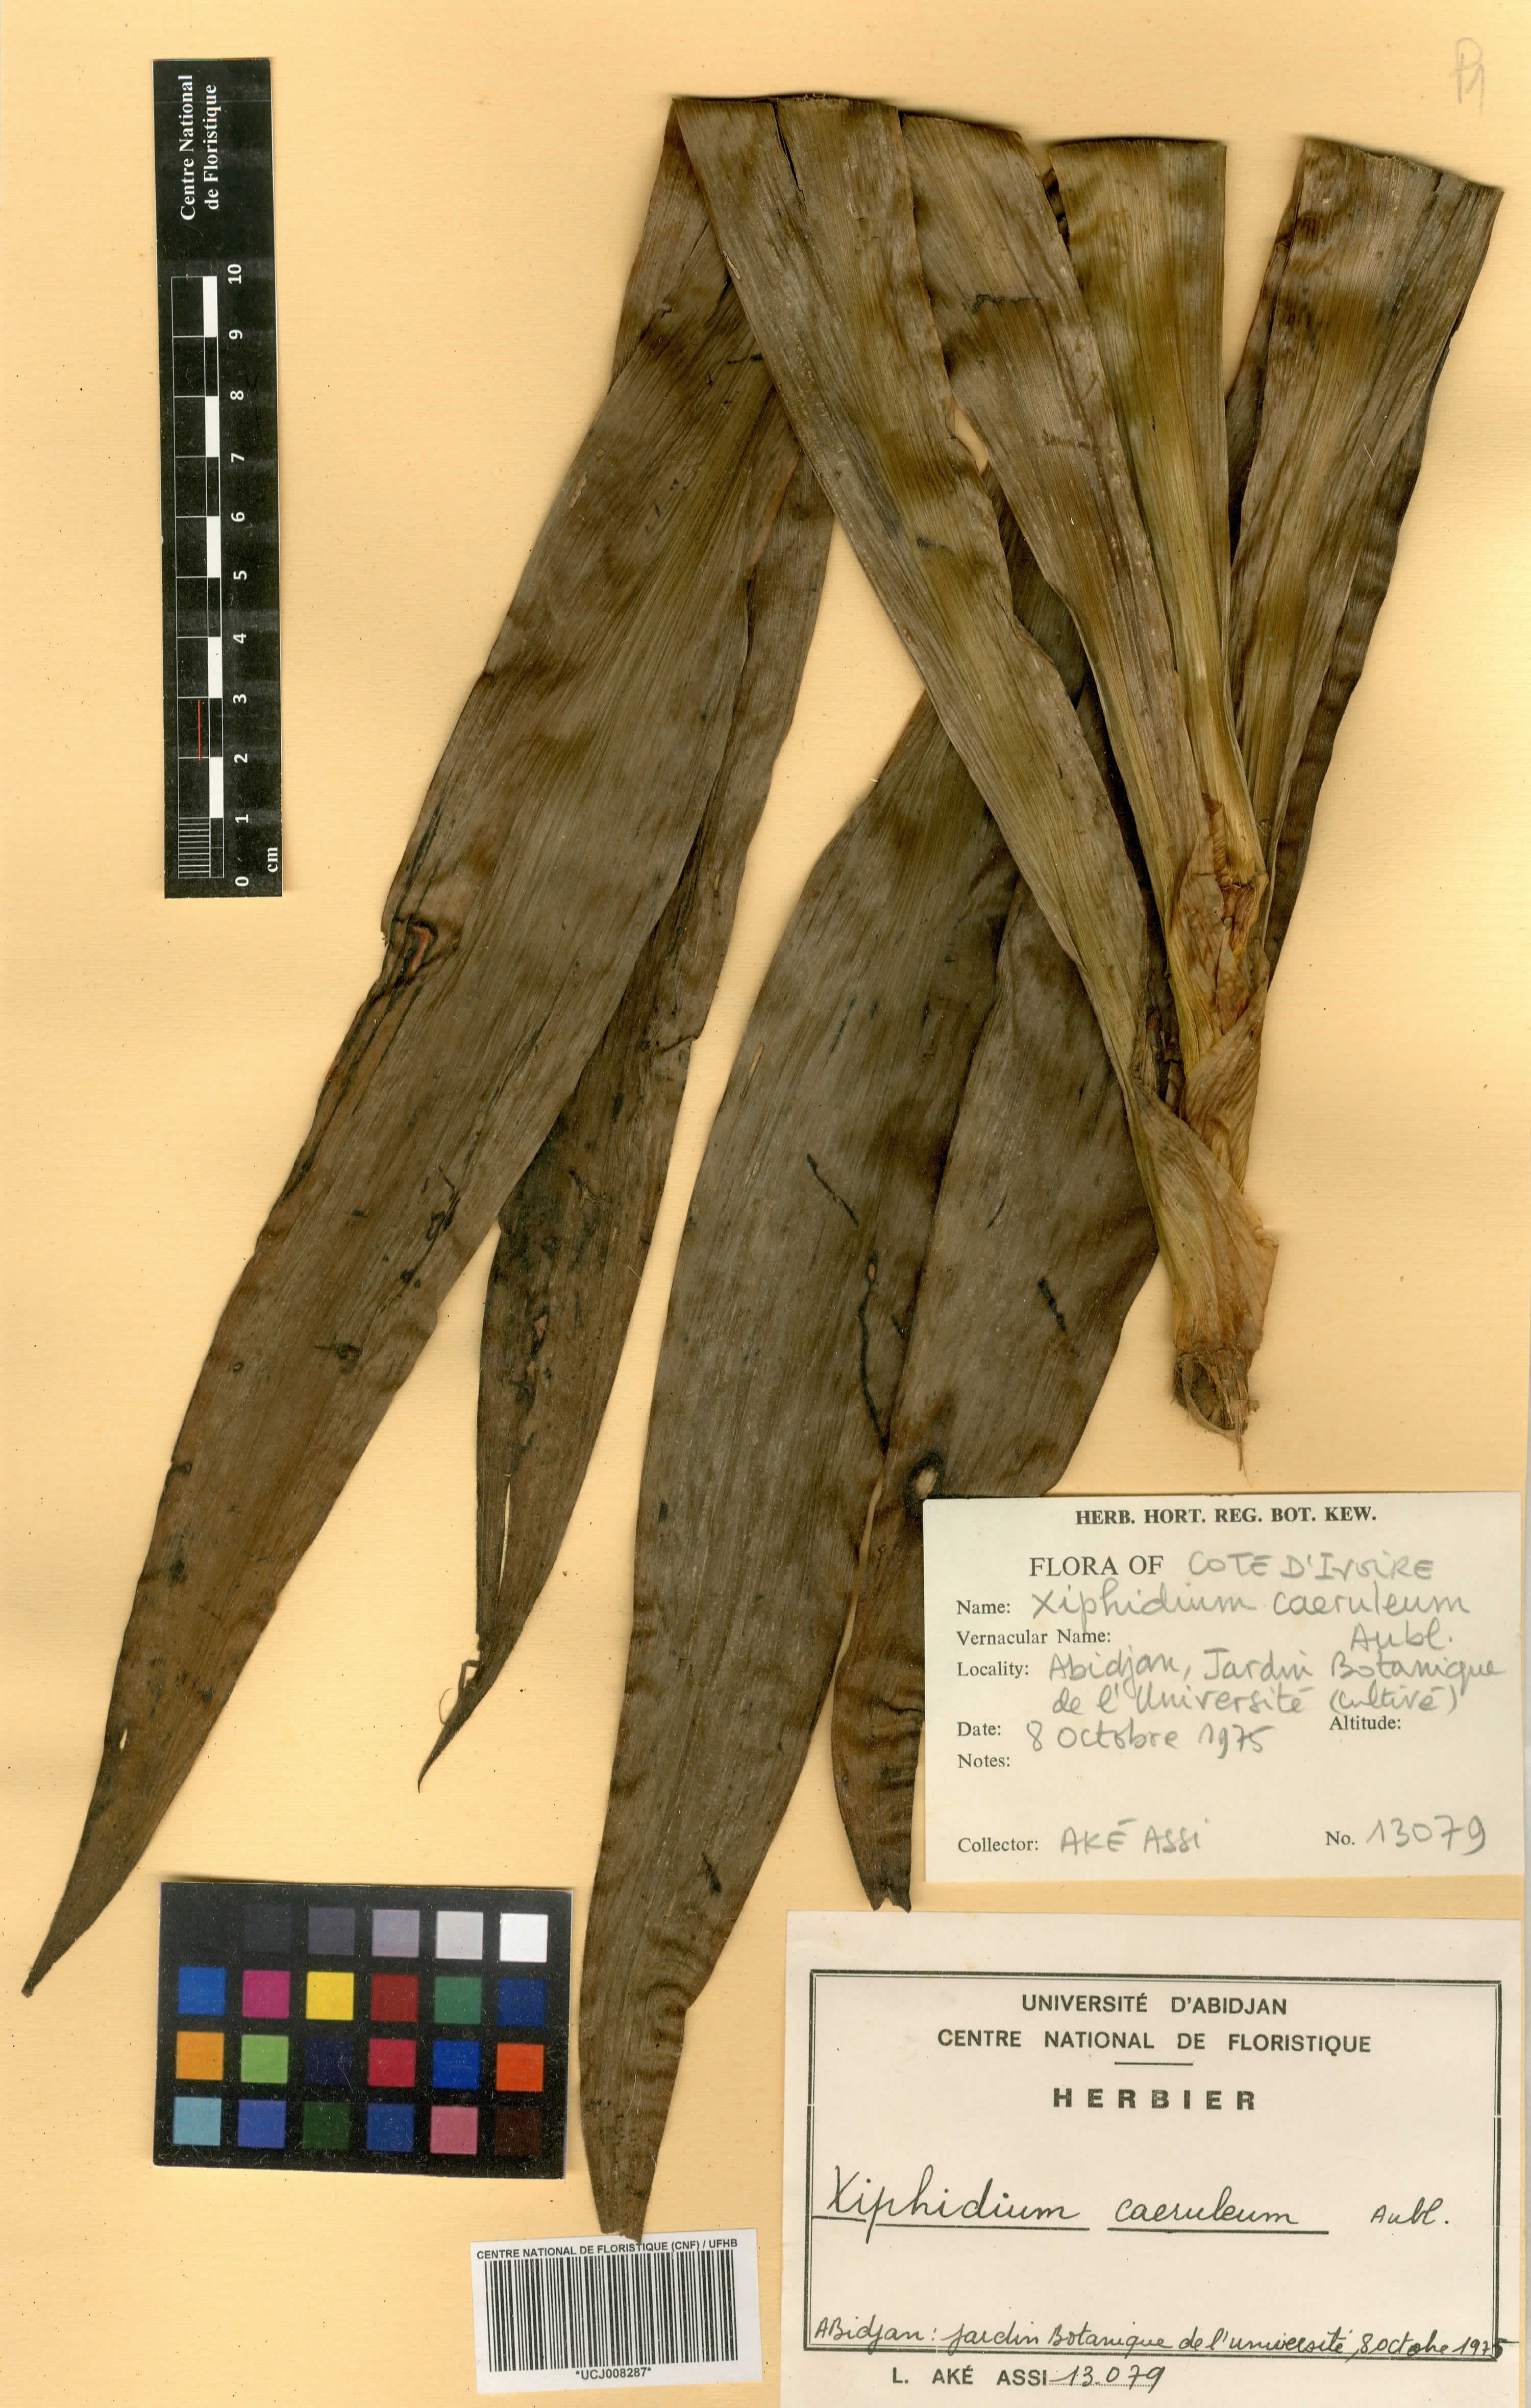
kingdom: Plantae
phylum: Tracheophyta
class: Liliopsida
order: Commelinales
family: Haemodoraceae
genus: Xiphidium
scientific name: Xiphidium caeruleum
